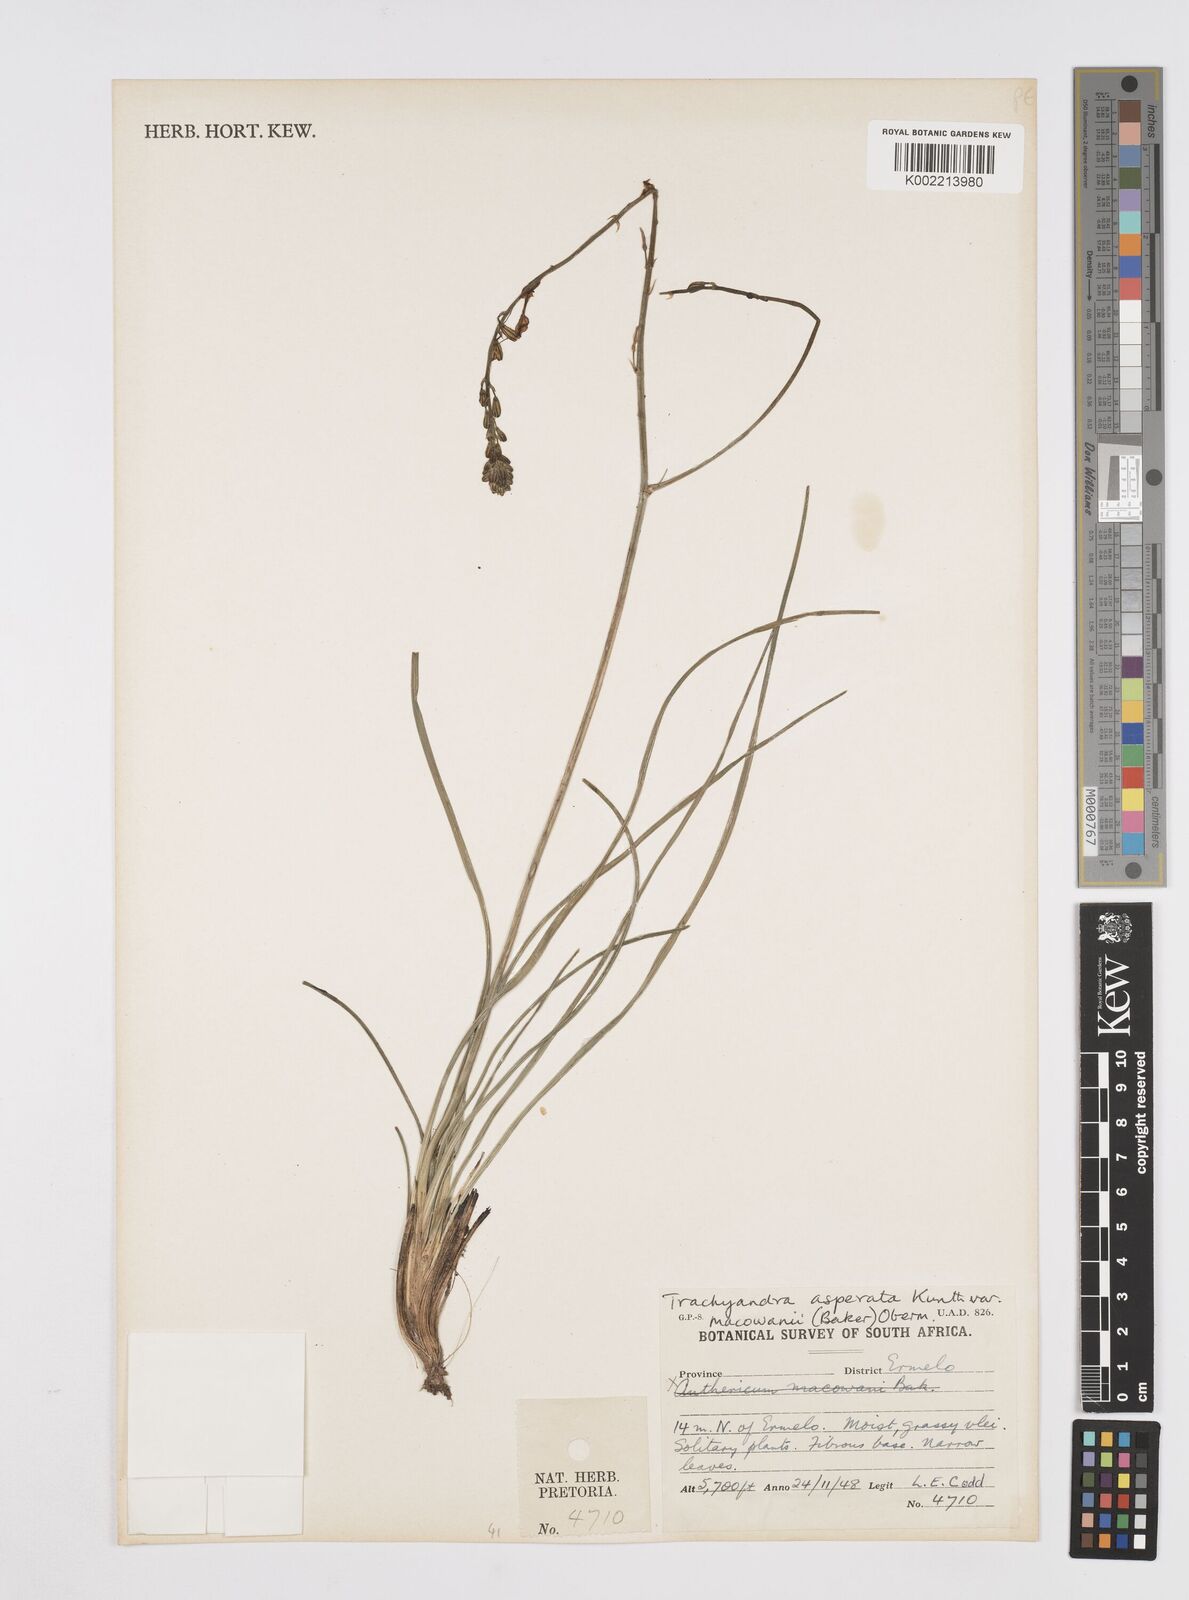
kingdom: Plantae
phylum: Tracheophyta
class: Liliopsida
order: Asparagales
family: Asphodelaceae
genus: Trachyandra
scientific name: Trachyandra asperata
